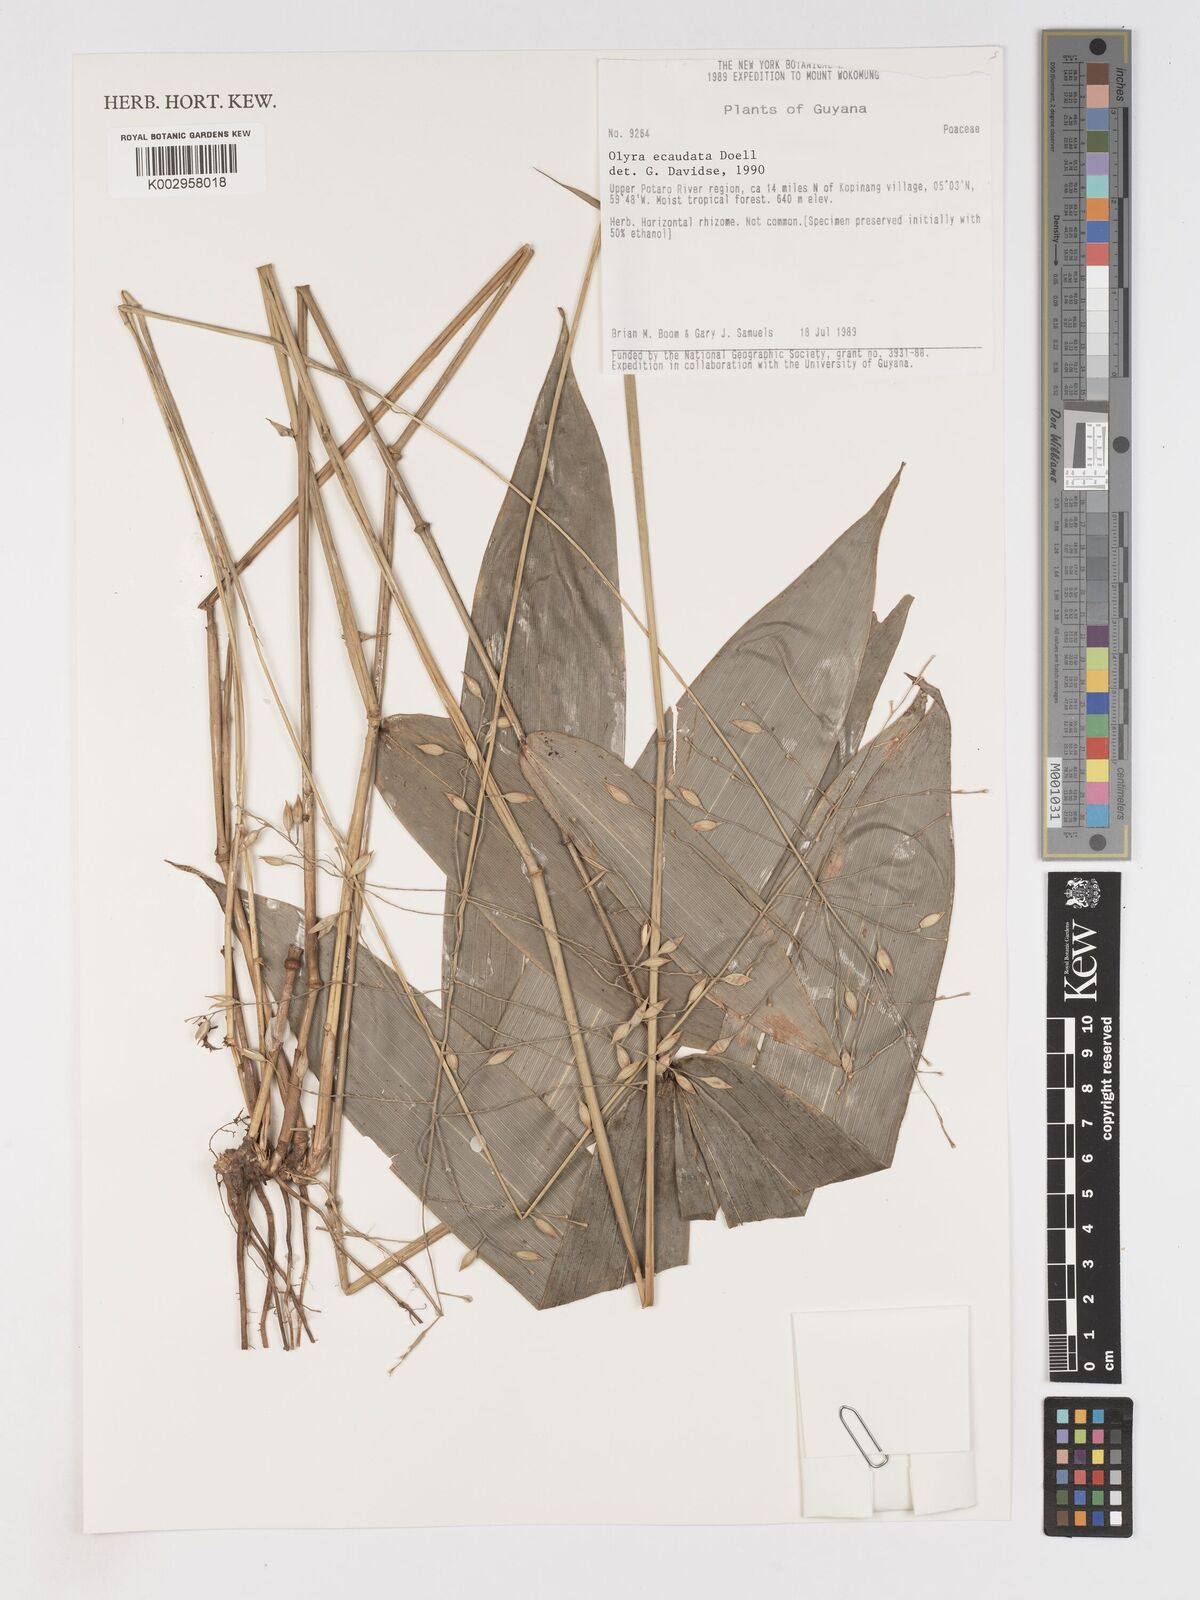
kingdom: Plantae
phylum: Tracheophyta
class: Liliopsida
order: Poales
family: Poaceae
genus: Olyra
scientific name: Olyra ecaudata
